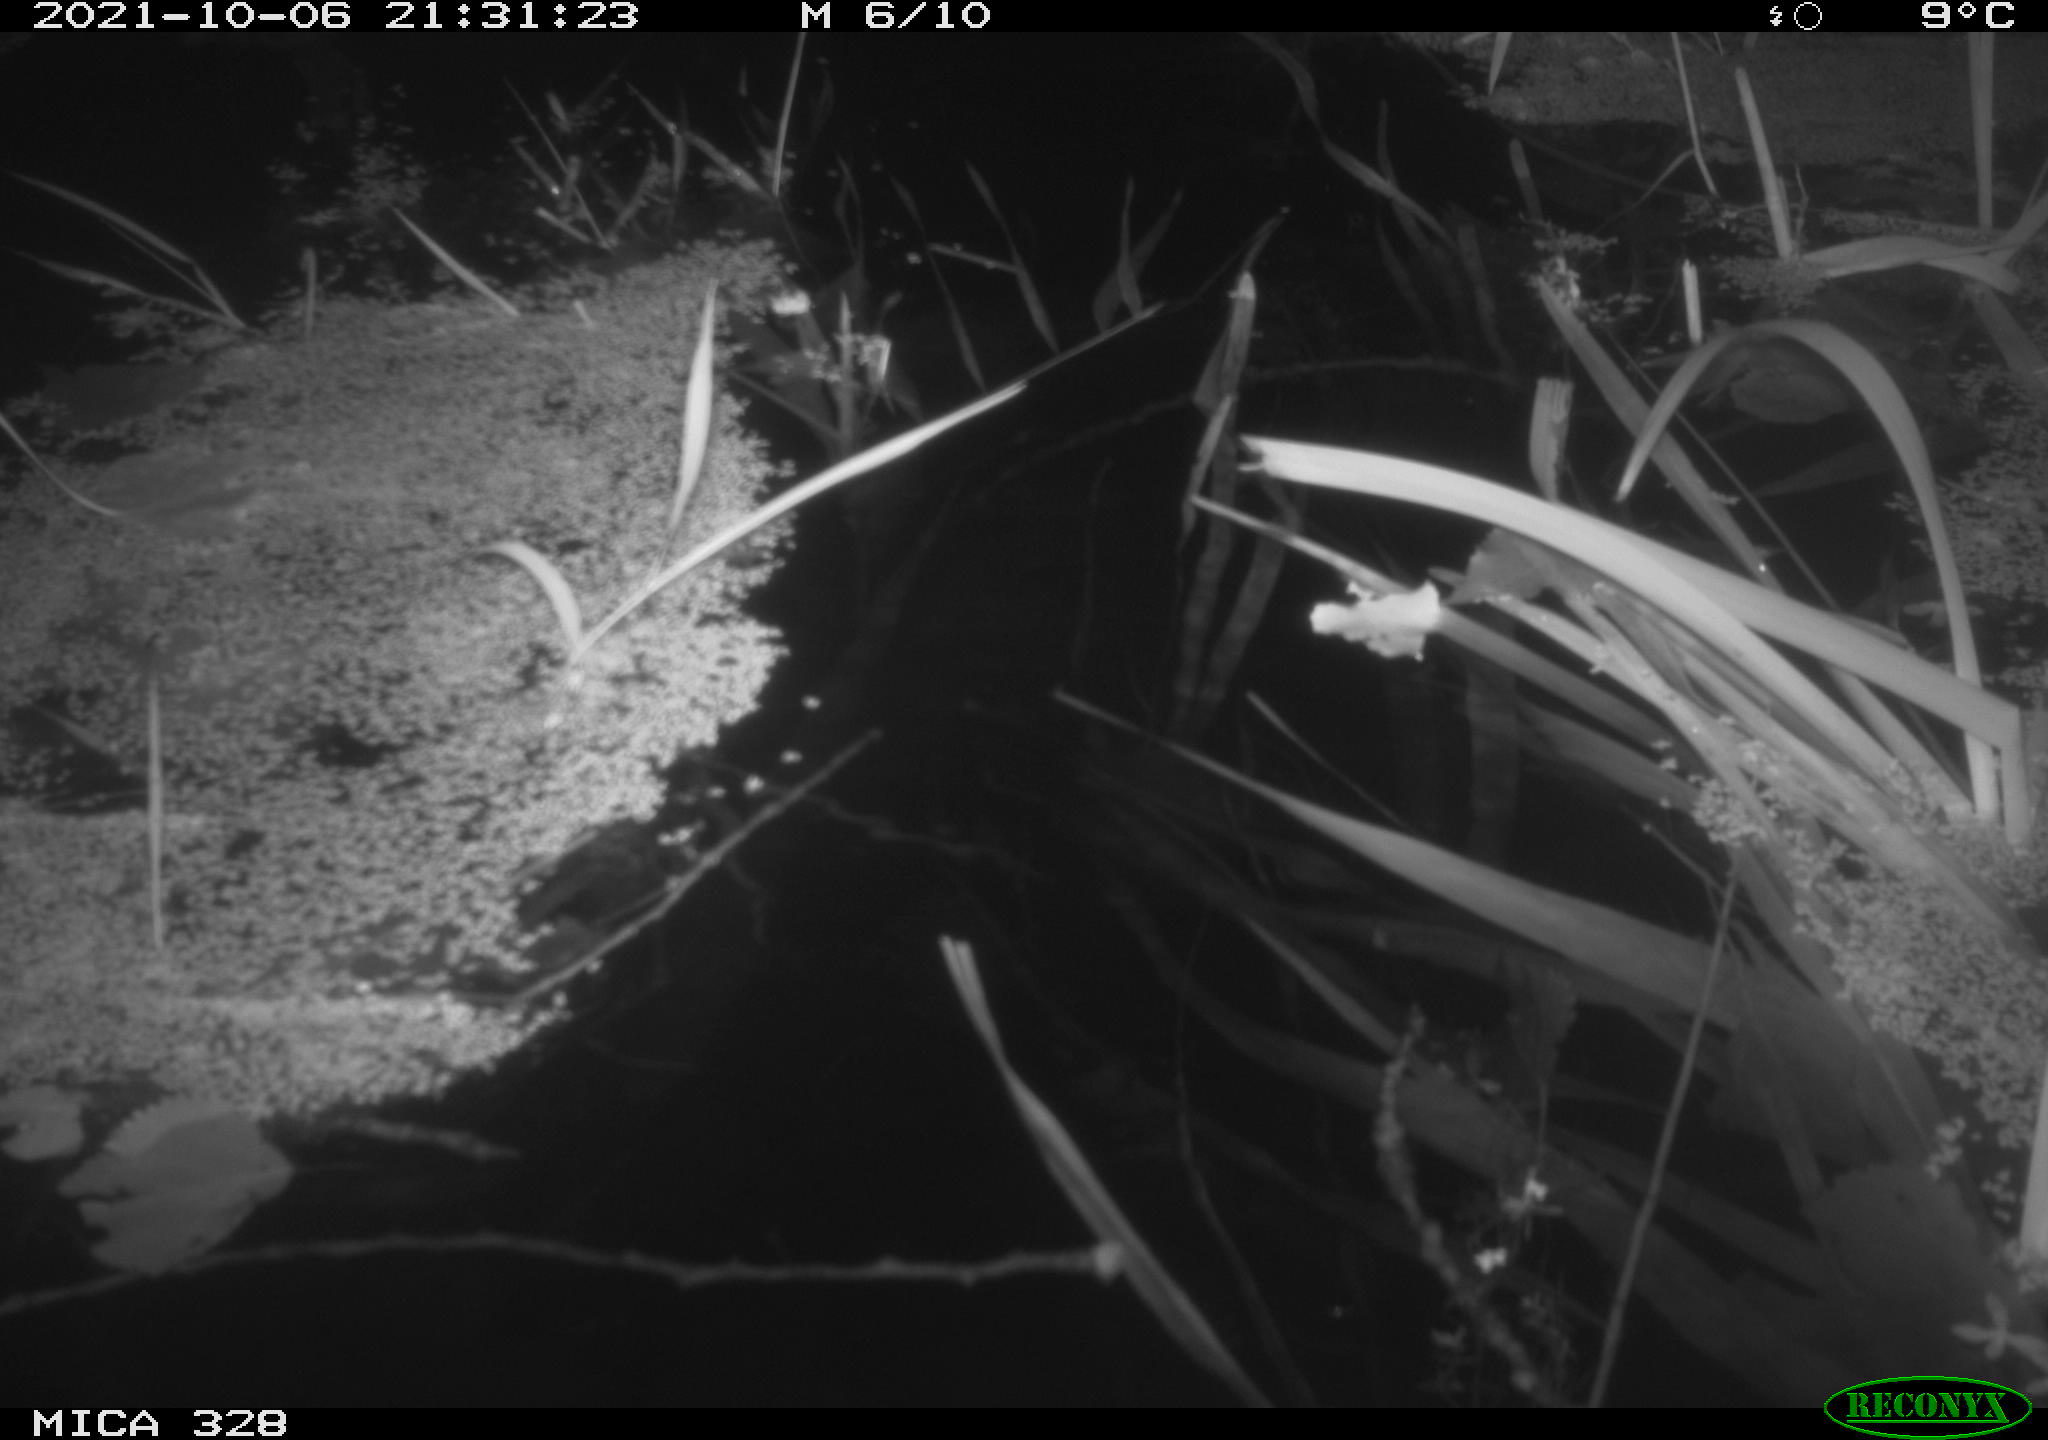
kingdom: Animalia
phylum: Chordata
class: Mammalia
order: Rodentia
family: Cricetidae
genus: Ondatra
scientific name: Ondatra zibethicus
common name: Muskrat
